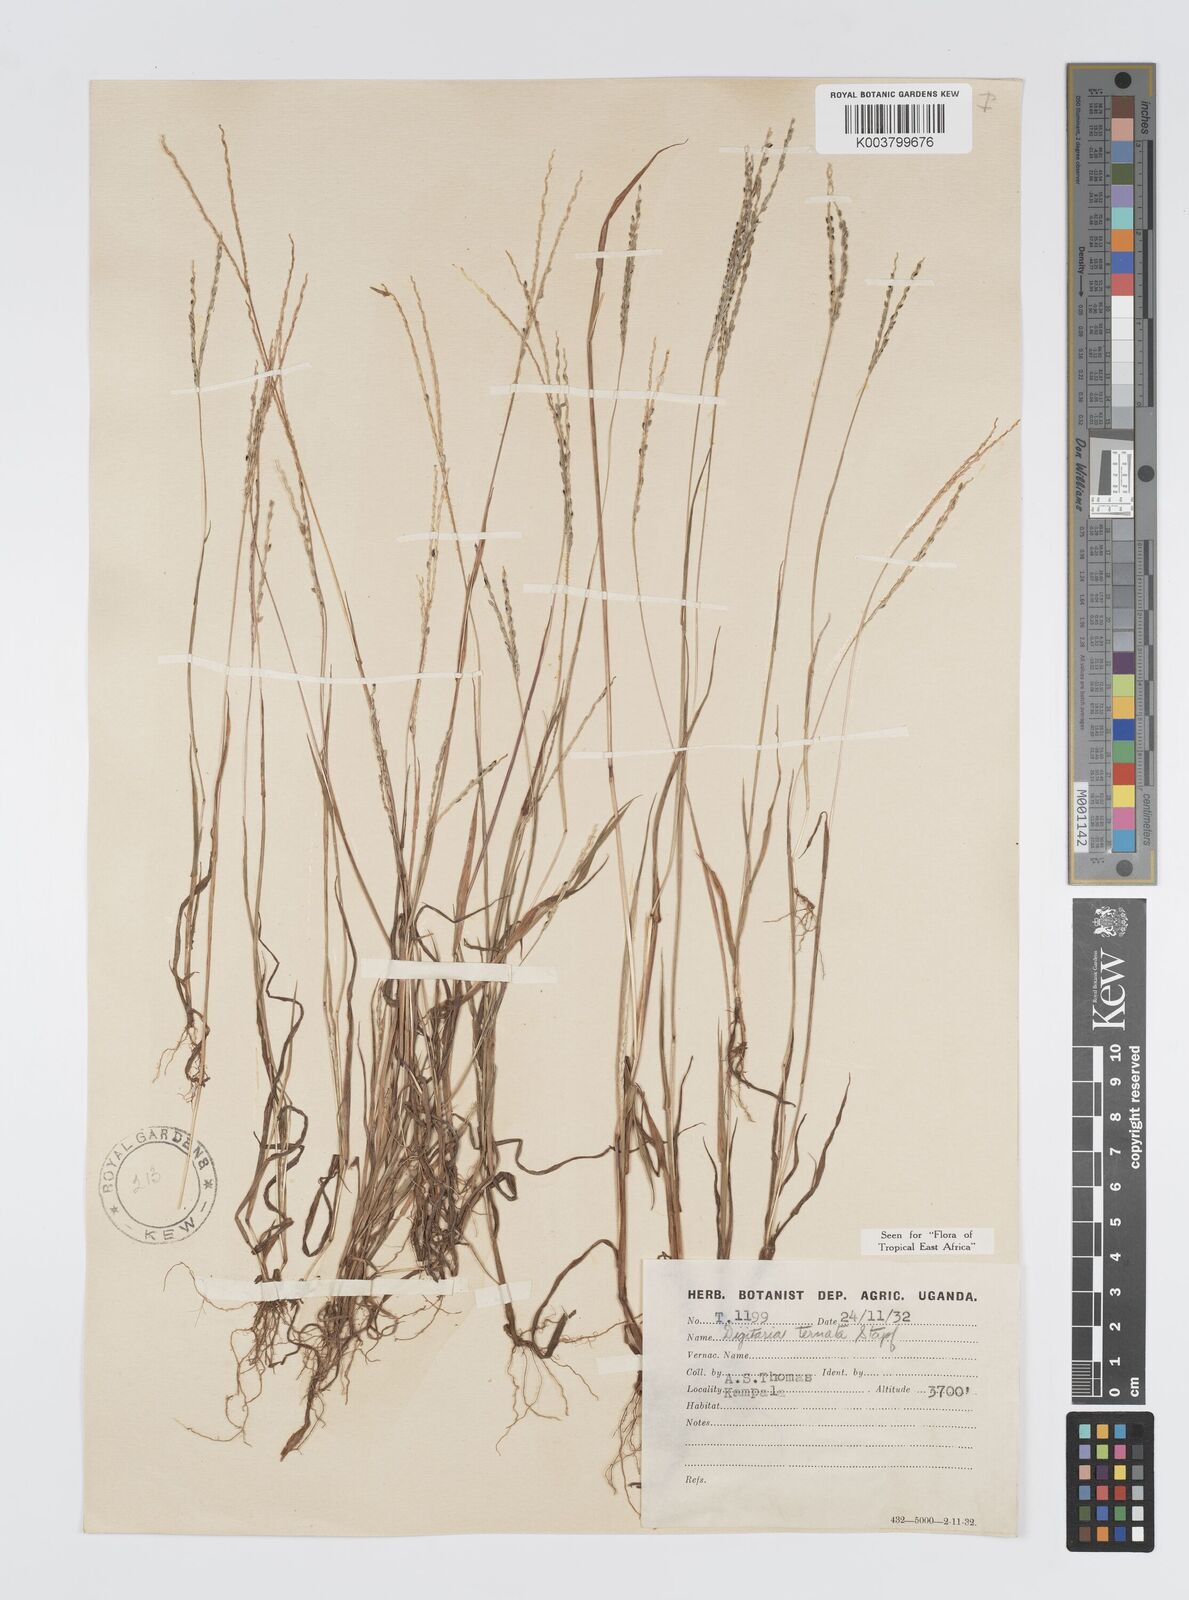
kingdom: Plantae
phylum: Tracheophyta
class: Liliopsida
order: Poales
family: Poaceae
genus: Digitaria
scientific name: Digitaria ternata
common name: Blackseed crabgrass
